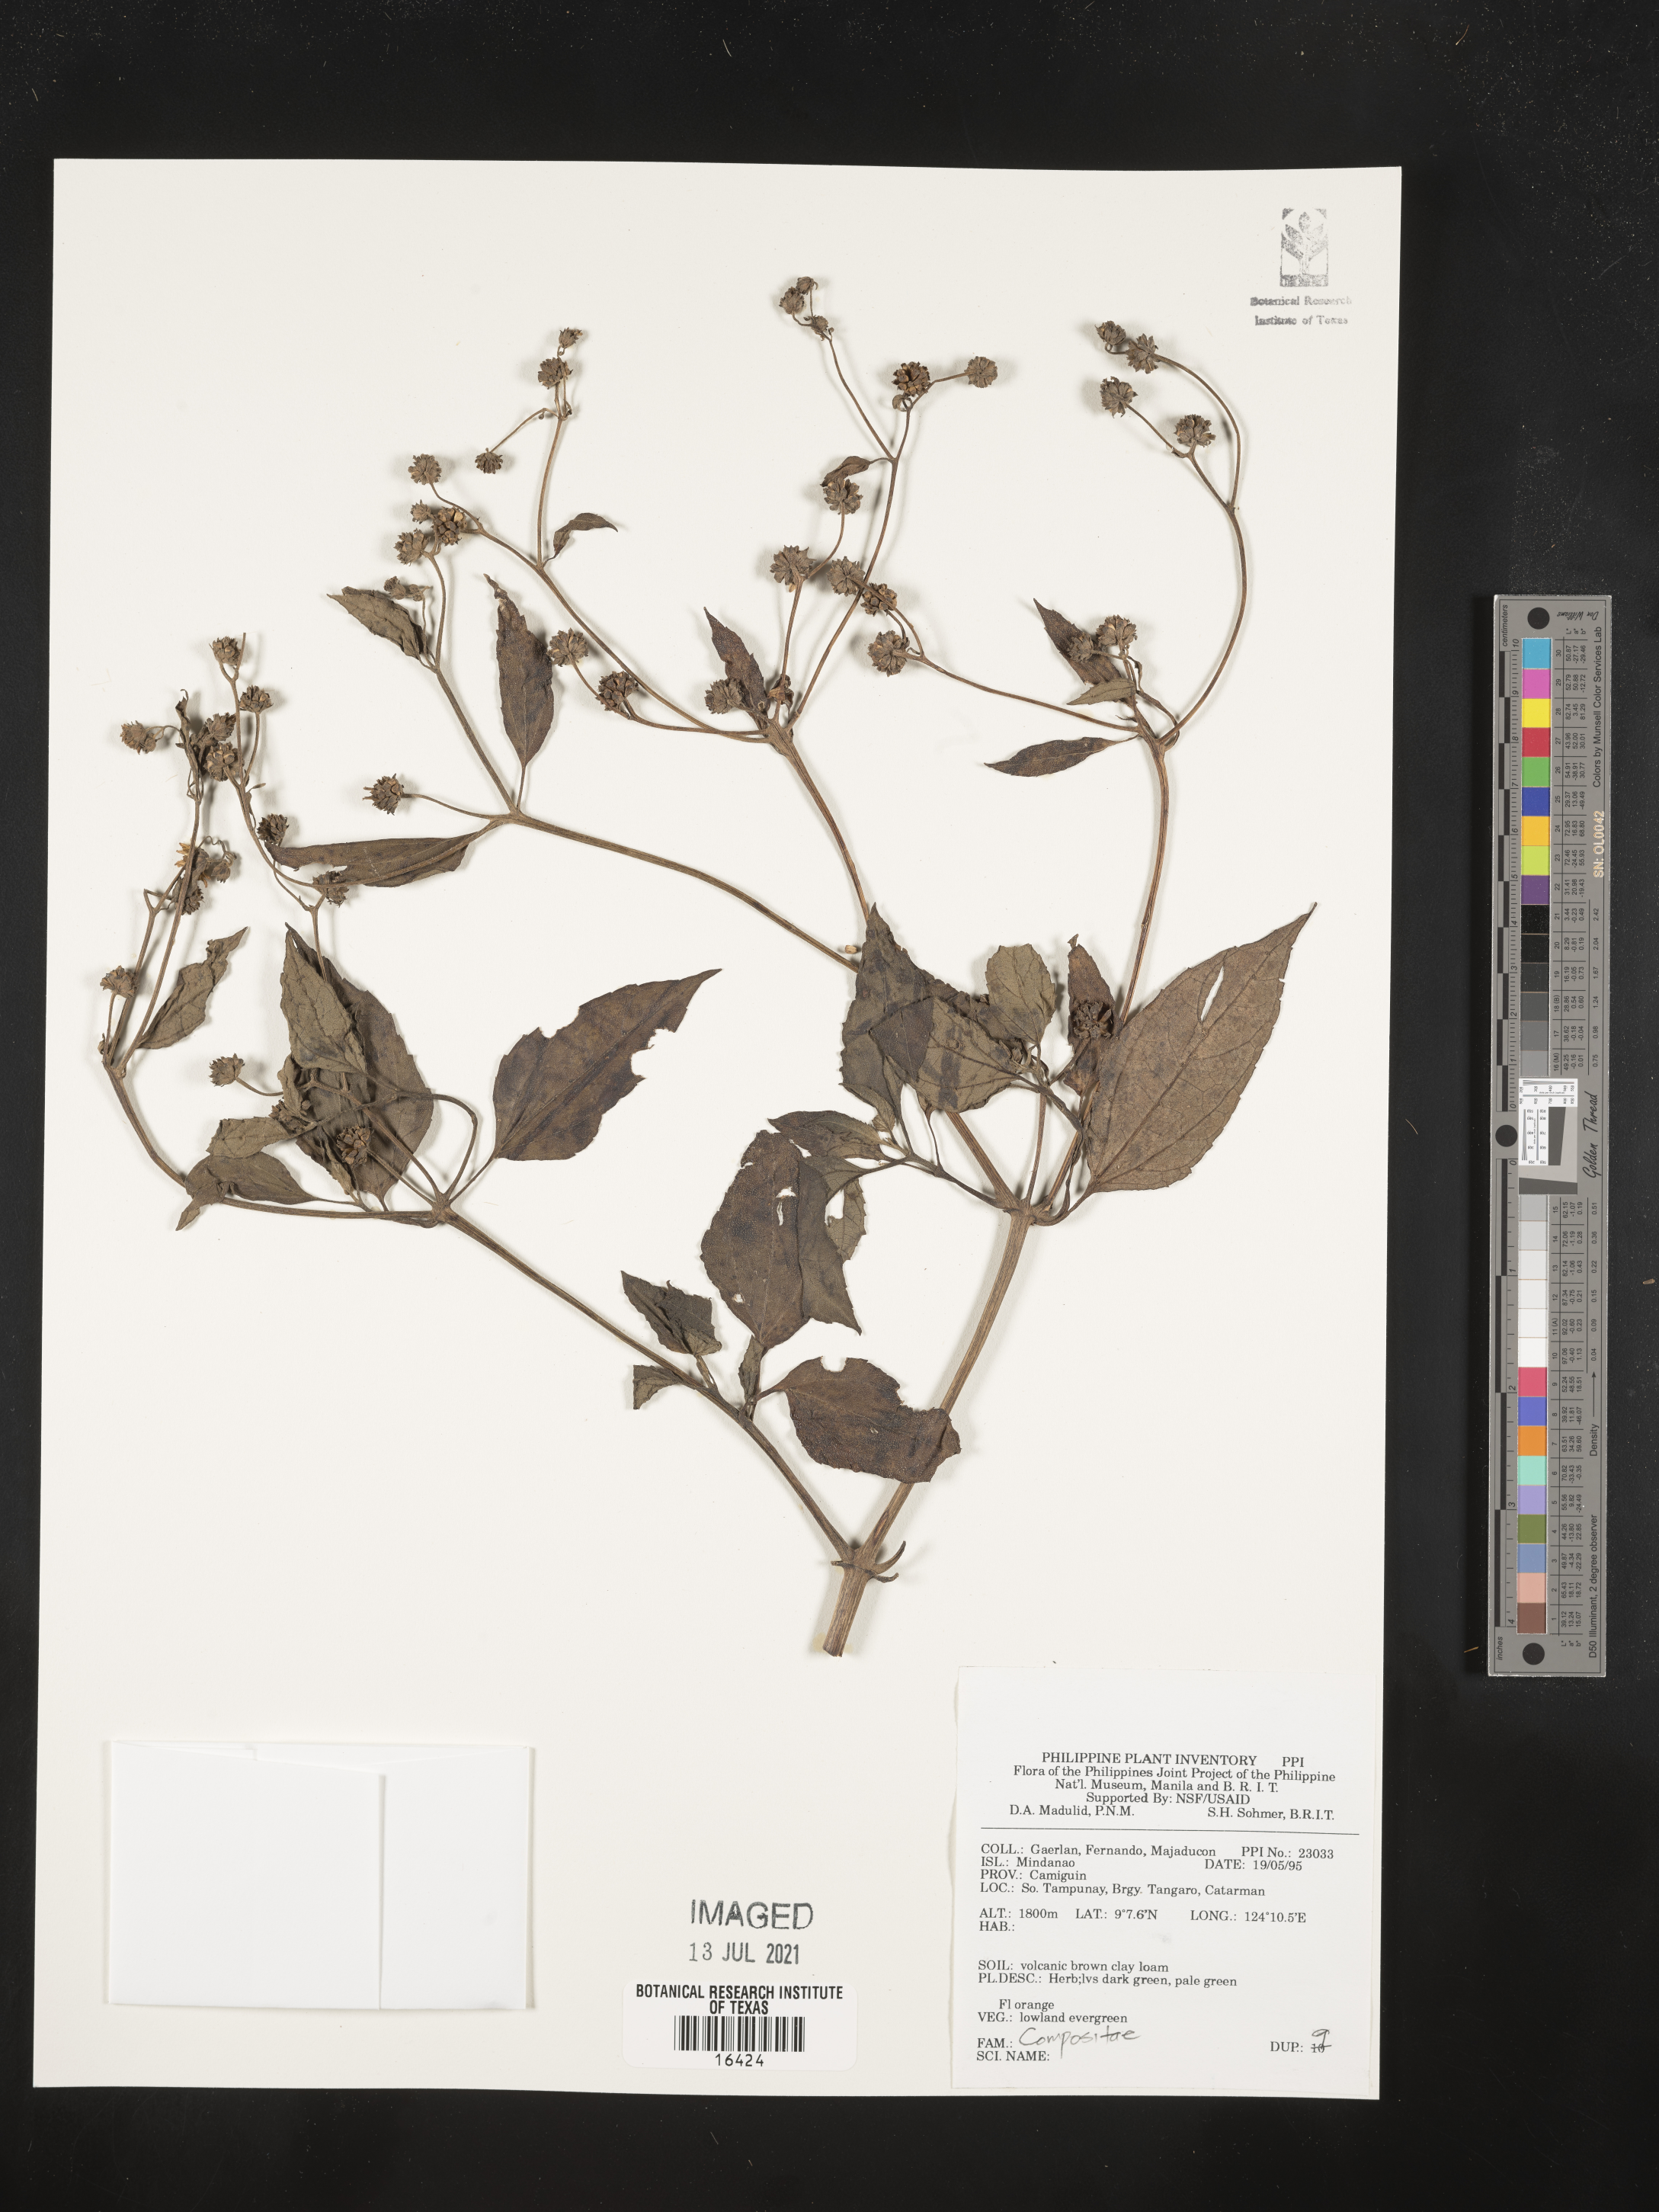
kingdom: Plantae
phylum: Tracheophyta
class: Magnoliopsida
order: Asterales
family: Asteraceae
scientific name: Asteraceae
